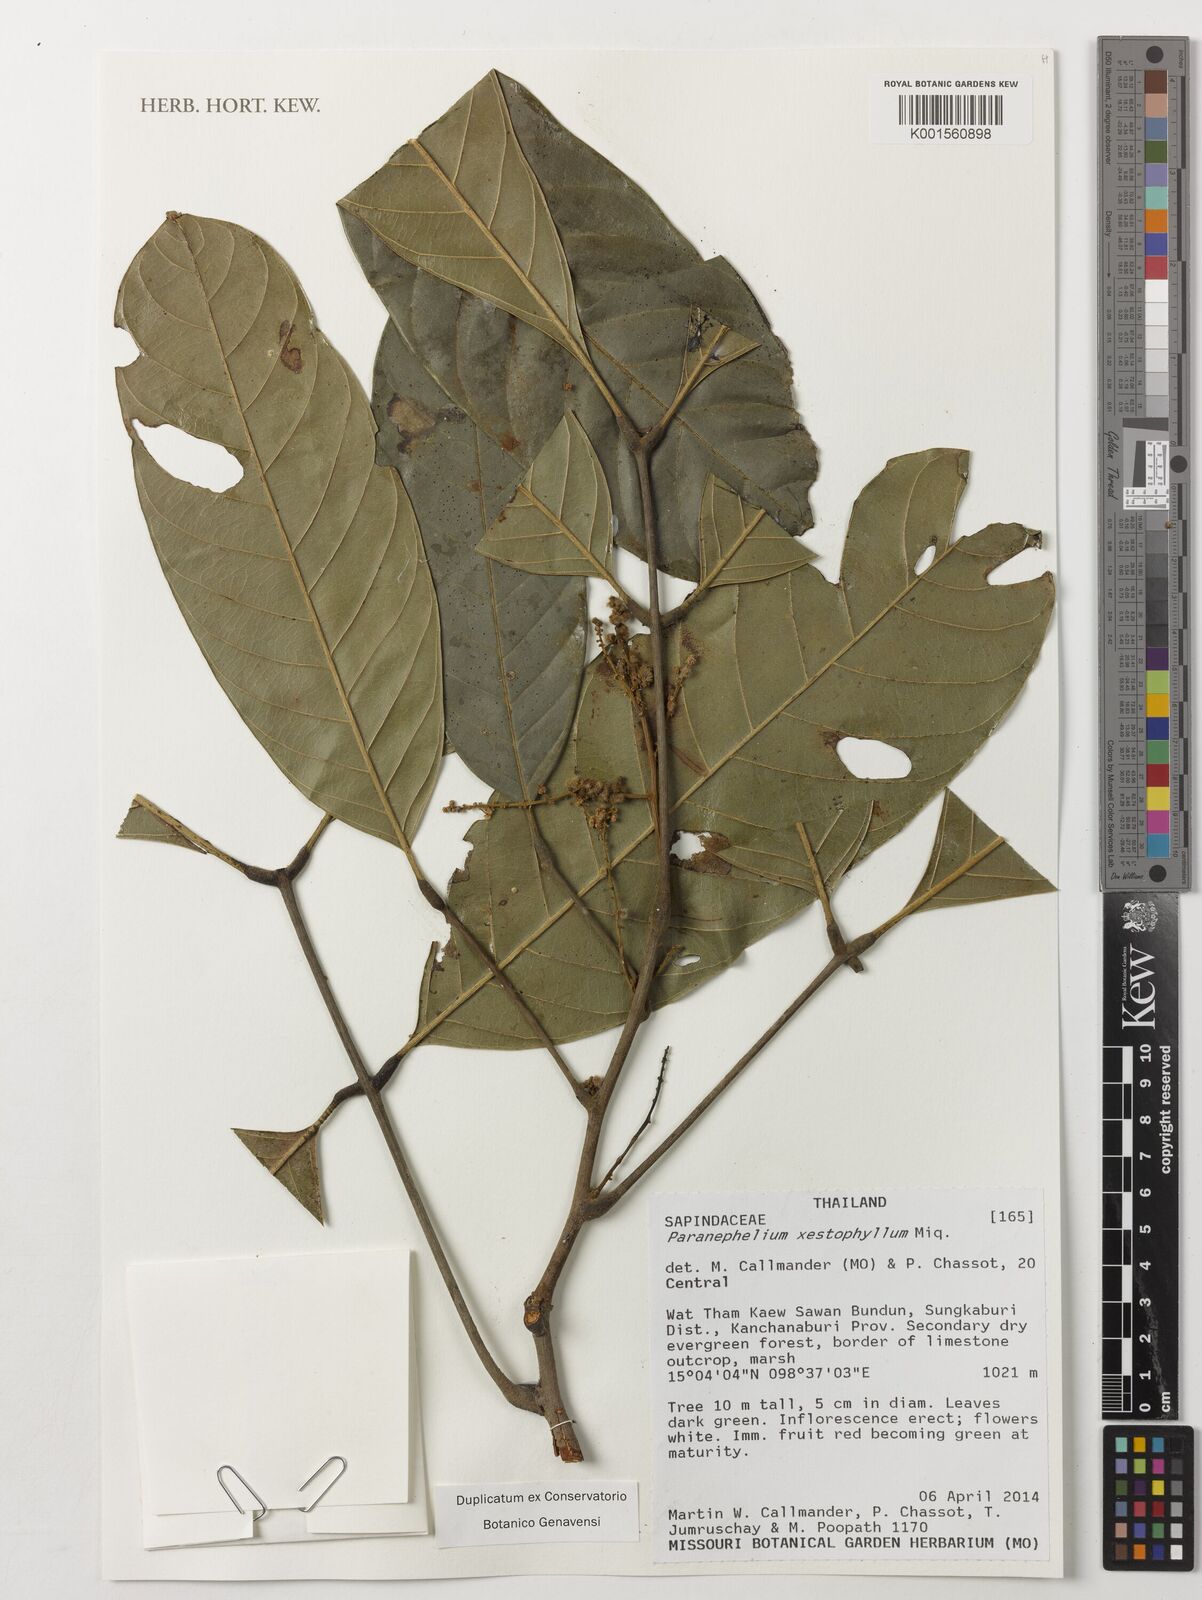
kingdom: Plantae
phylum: Tracheophyta
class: Magnoliopsida
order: Sapindales
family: Sapindaceae
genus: Paranephelium
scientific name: Paranephelium xestophyllum
